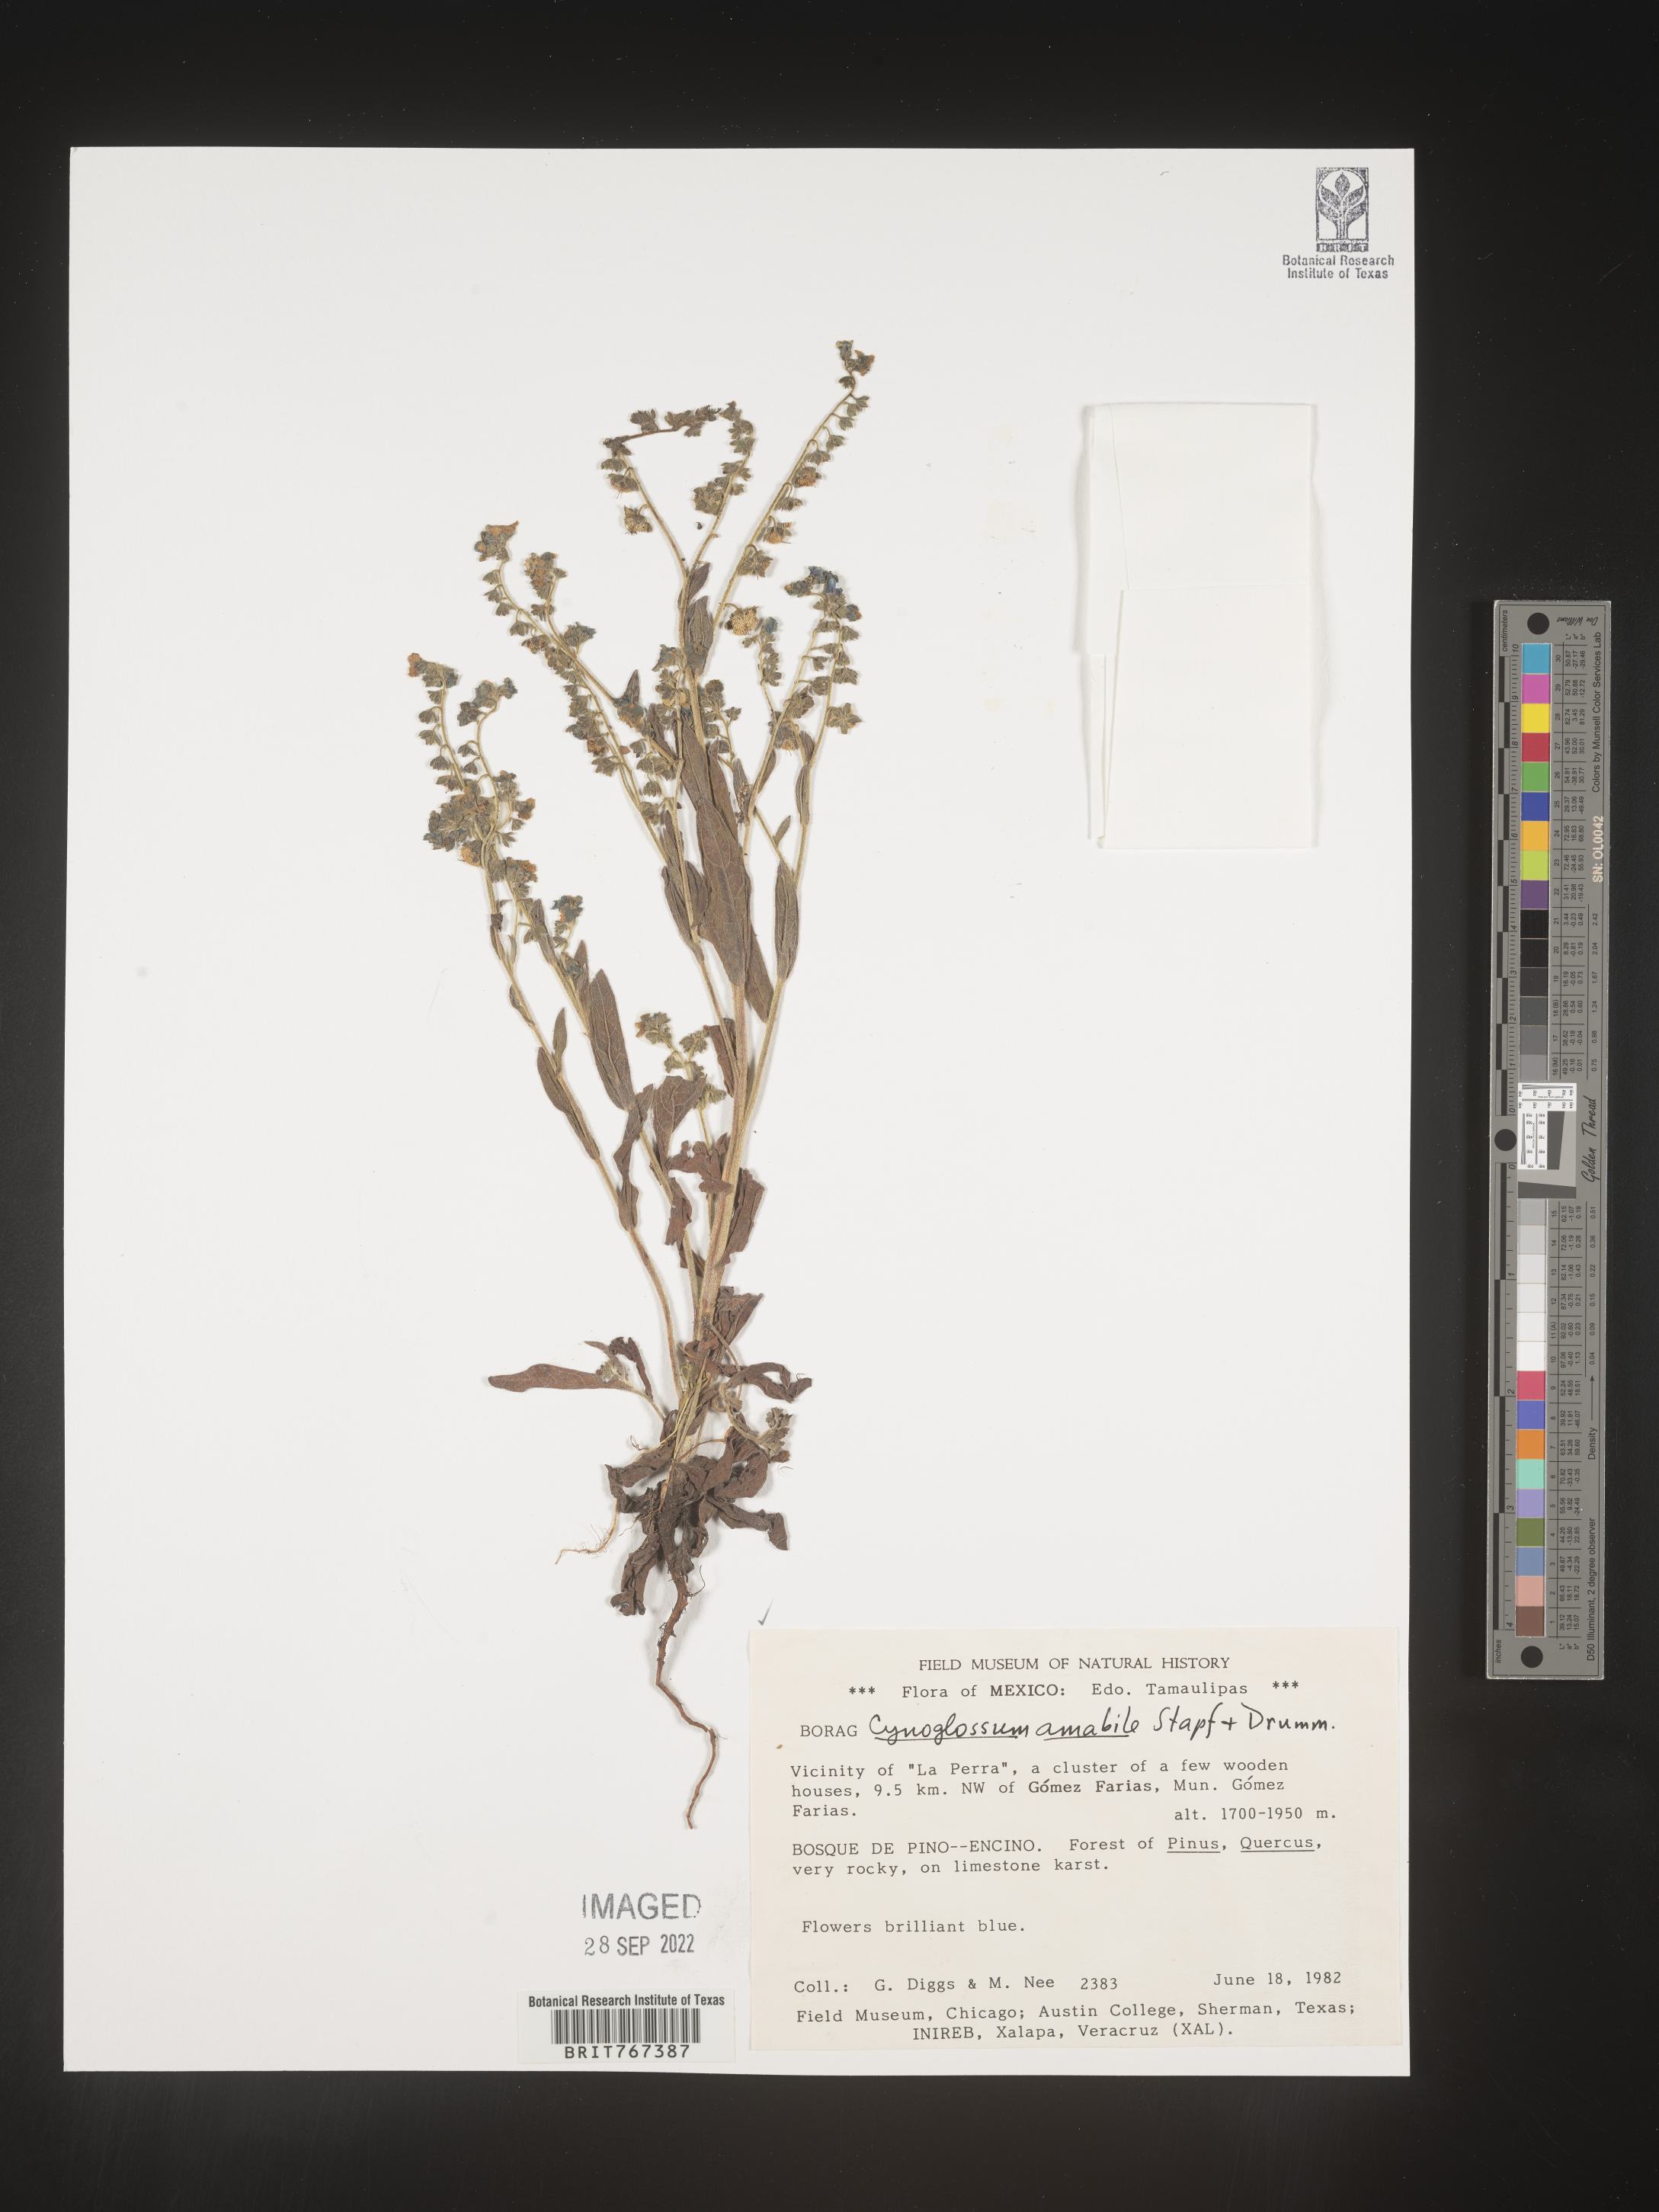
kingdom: Plantae
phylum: Tracheophyta
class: Magnoliopsida
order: Boraginales
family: Boraginaceae
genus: Cynoglossum
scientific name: Cynoglossum
